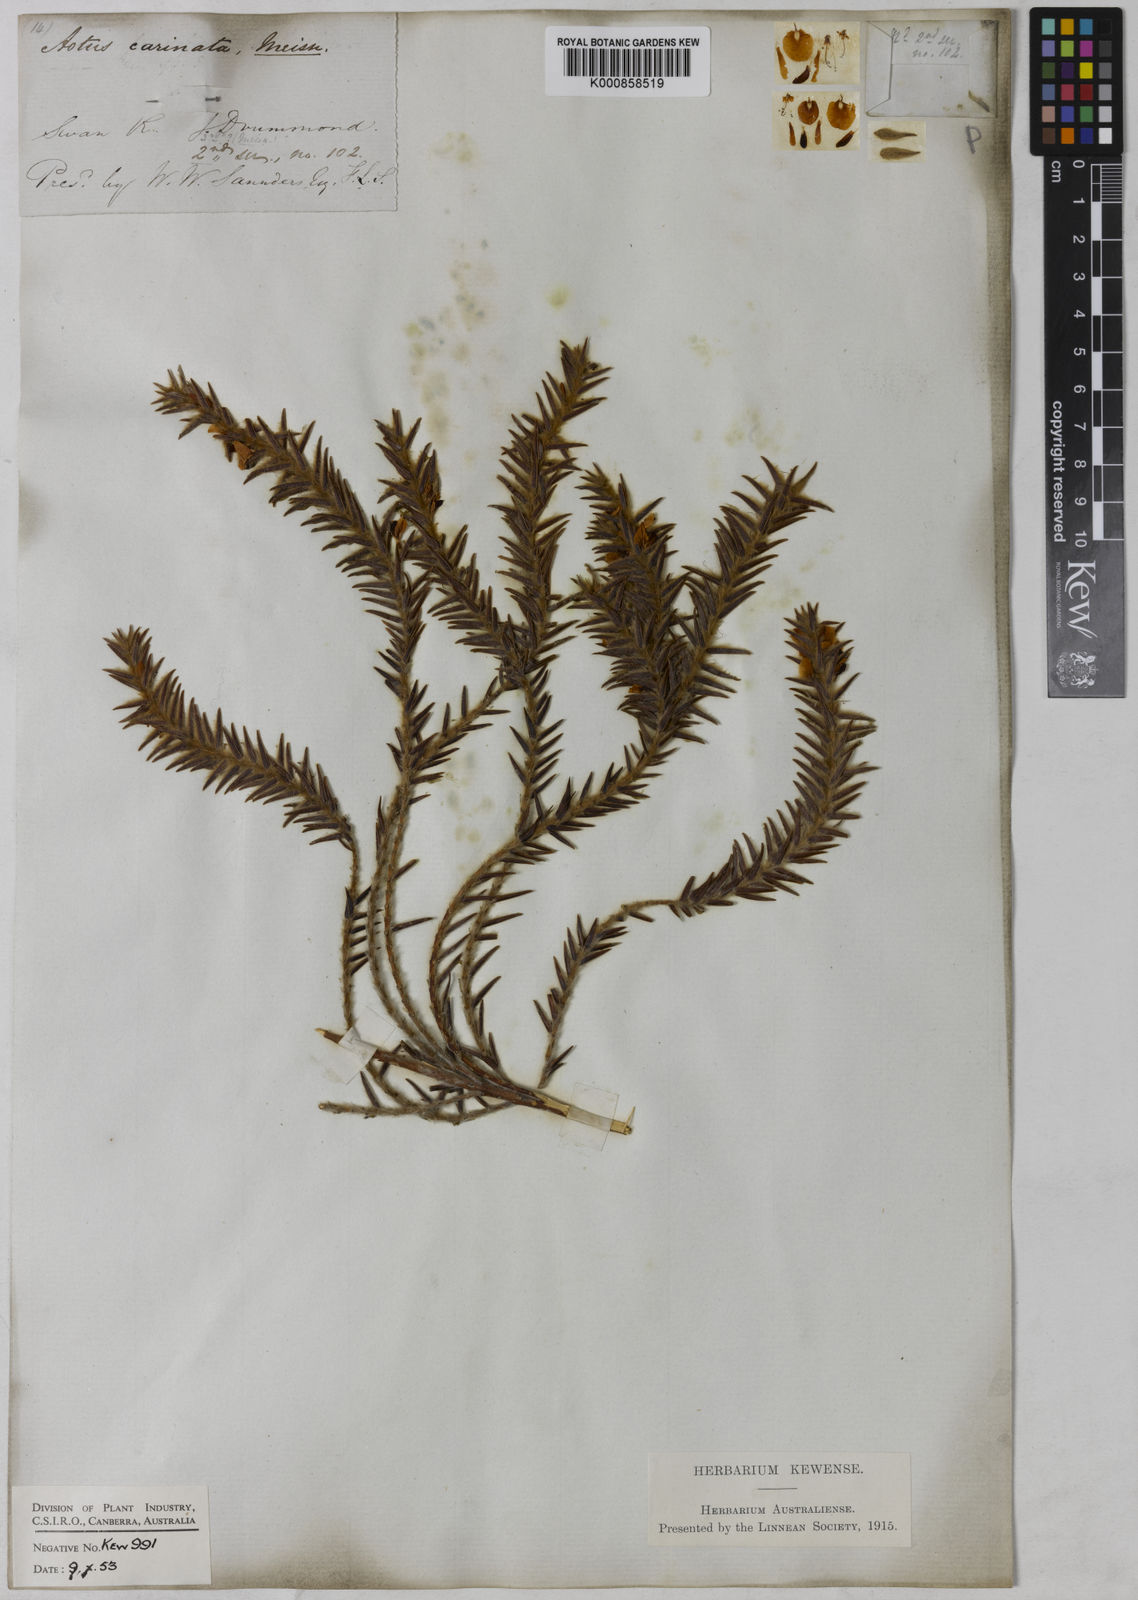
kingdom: Plantae
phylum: Tracheophyta
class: Magnoliopsida
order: Fabales
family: Fabaceae
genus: Aotus
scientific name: Aotus carinata
